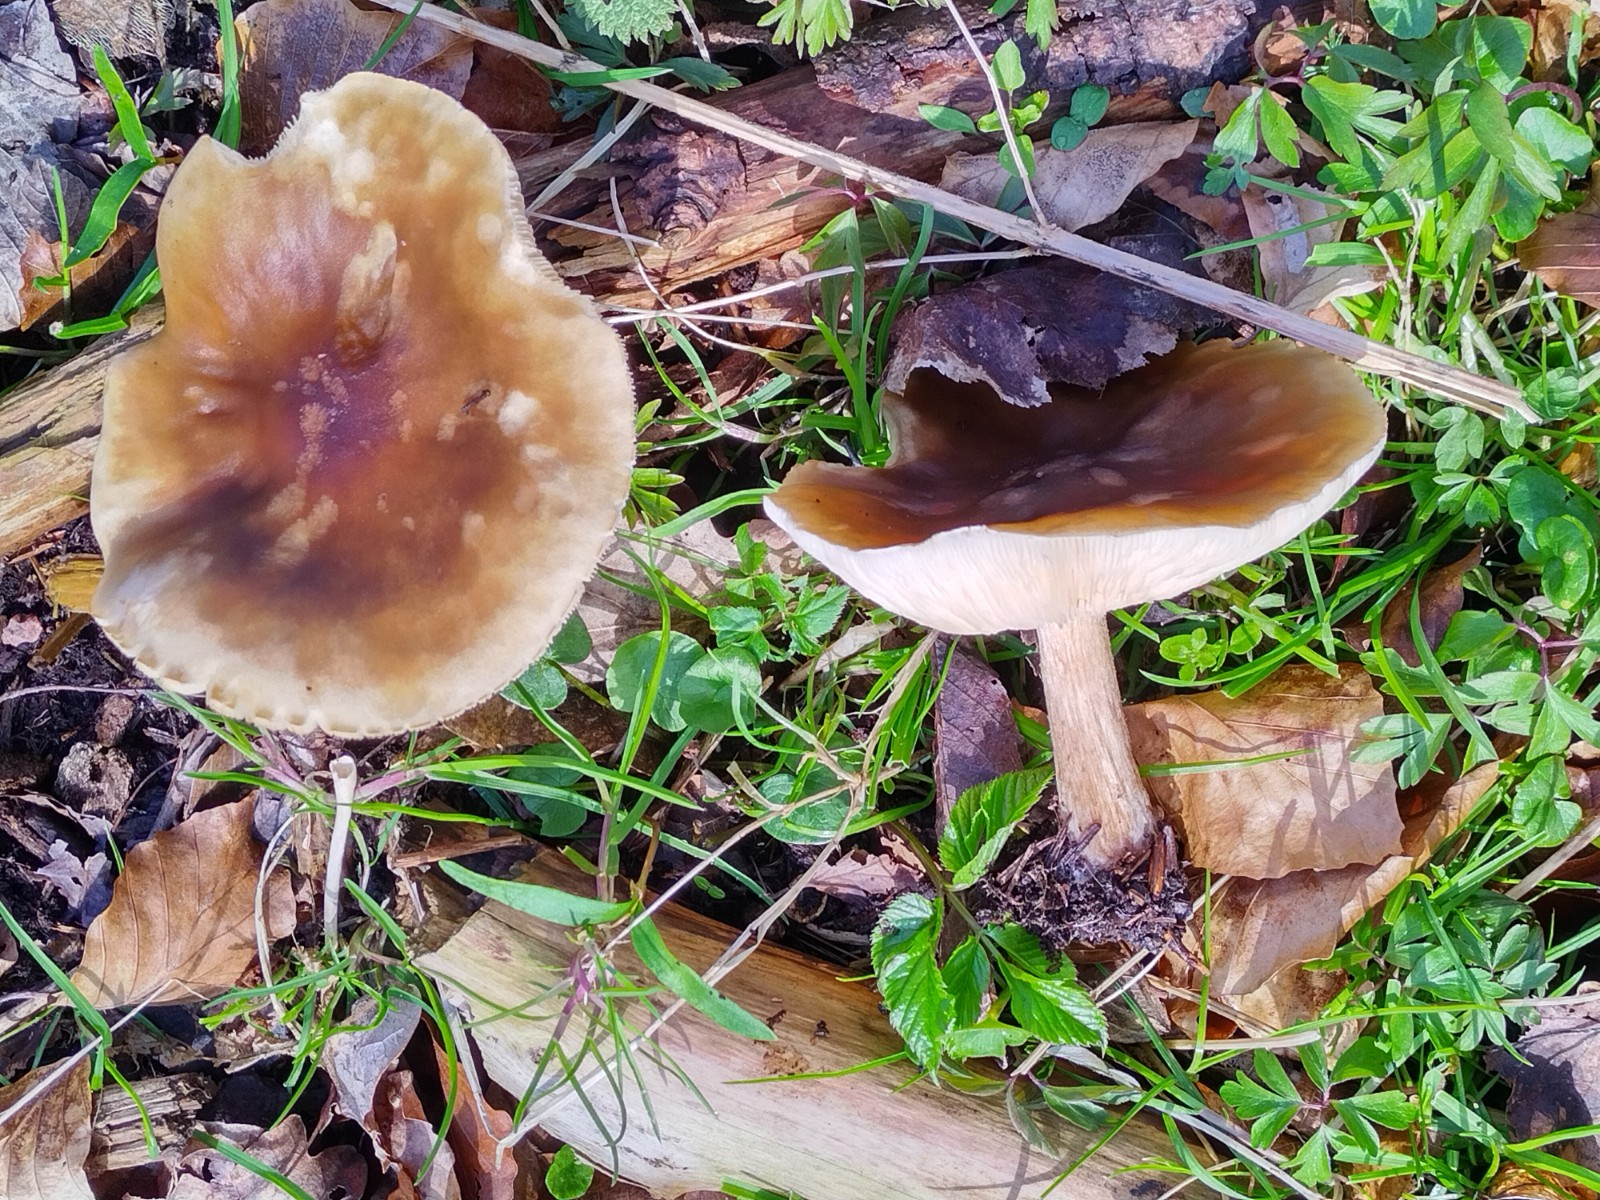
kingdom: Fungi
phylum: Basidiomycota
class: Agaricomycetes
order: Agaricales
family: Tricholomataceae
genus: Melanoleuca
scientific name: Melanoleuca cognata
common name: gyldengrå munkehat
